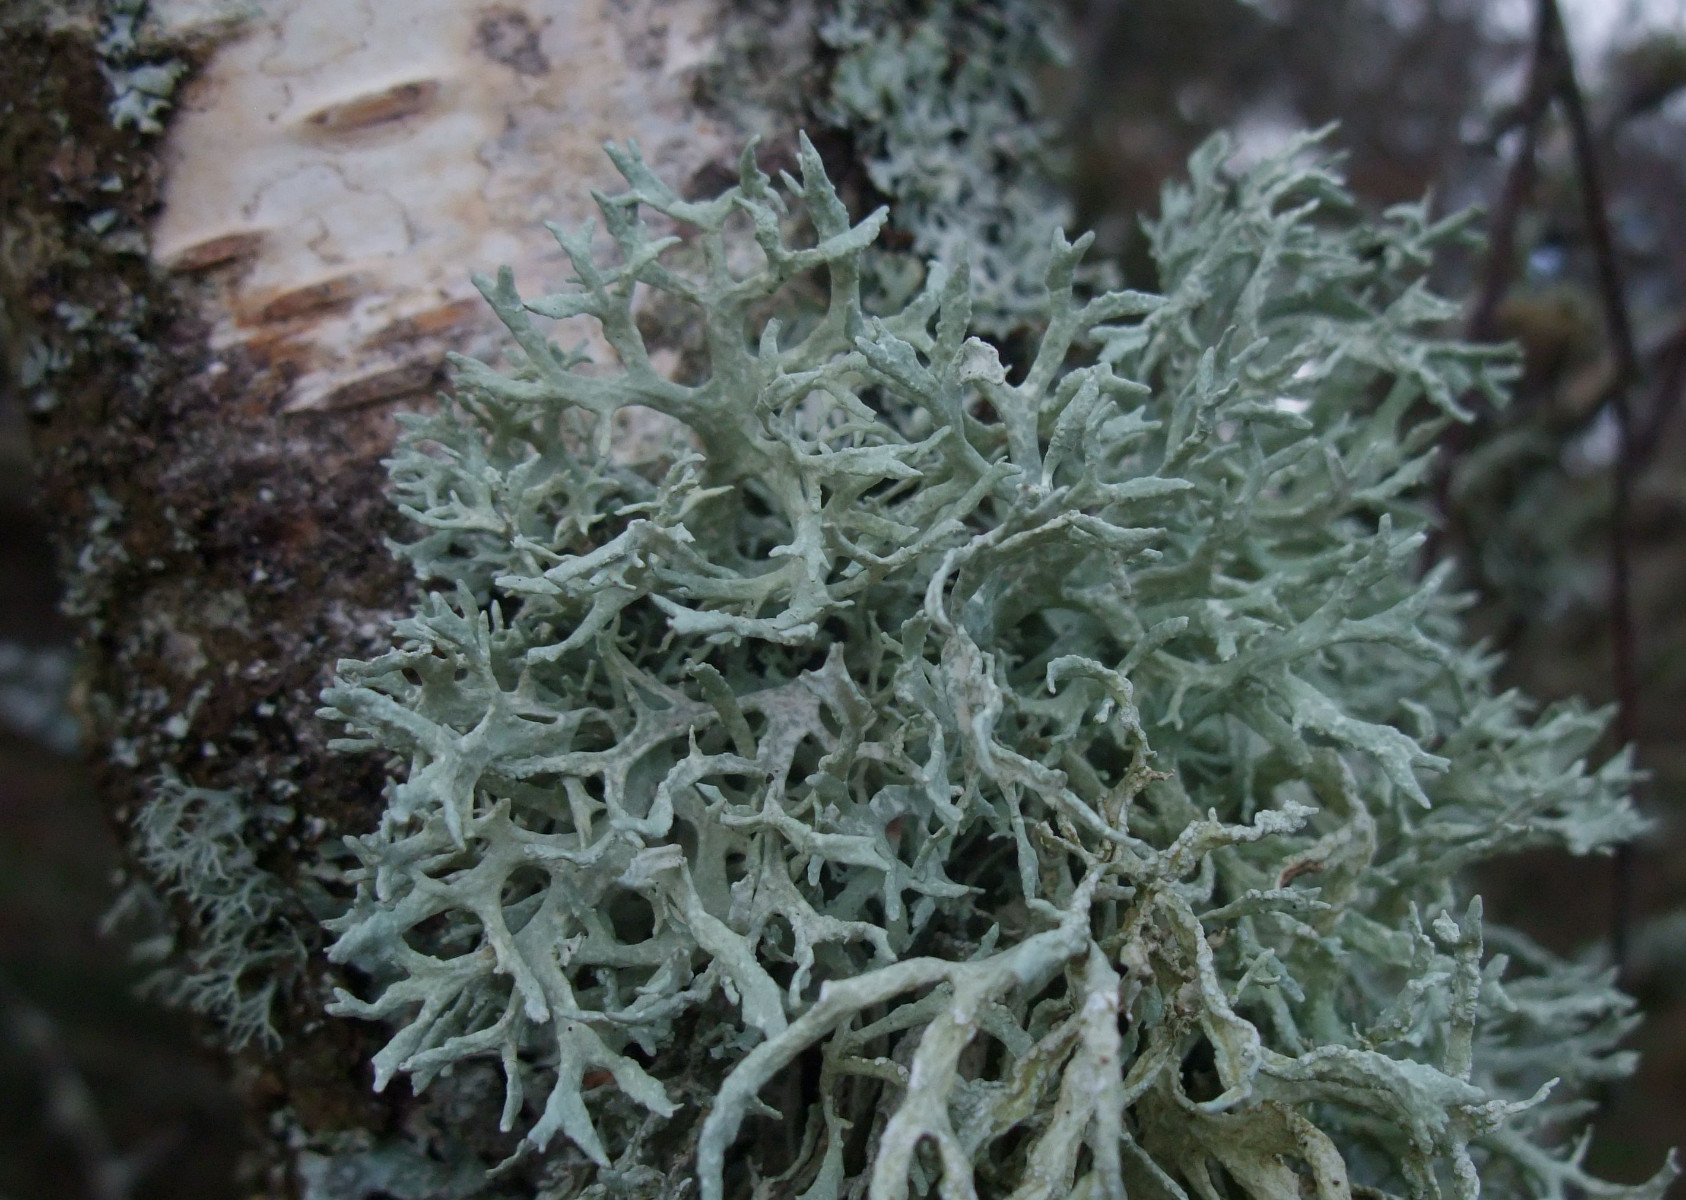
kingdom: Fungi
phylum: Ascomycota
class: Lecanoromycetes
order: Lecanorales
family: Parmeliaceae
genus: Evernia
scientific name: Evernia prunastri
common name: almindelig slåenlav
